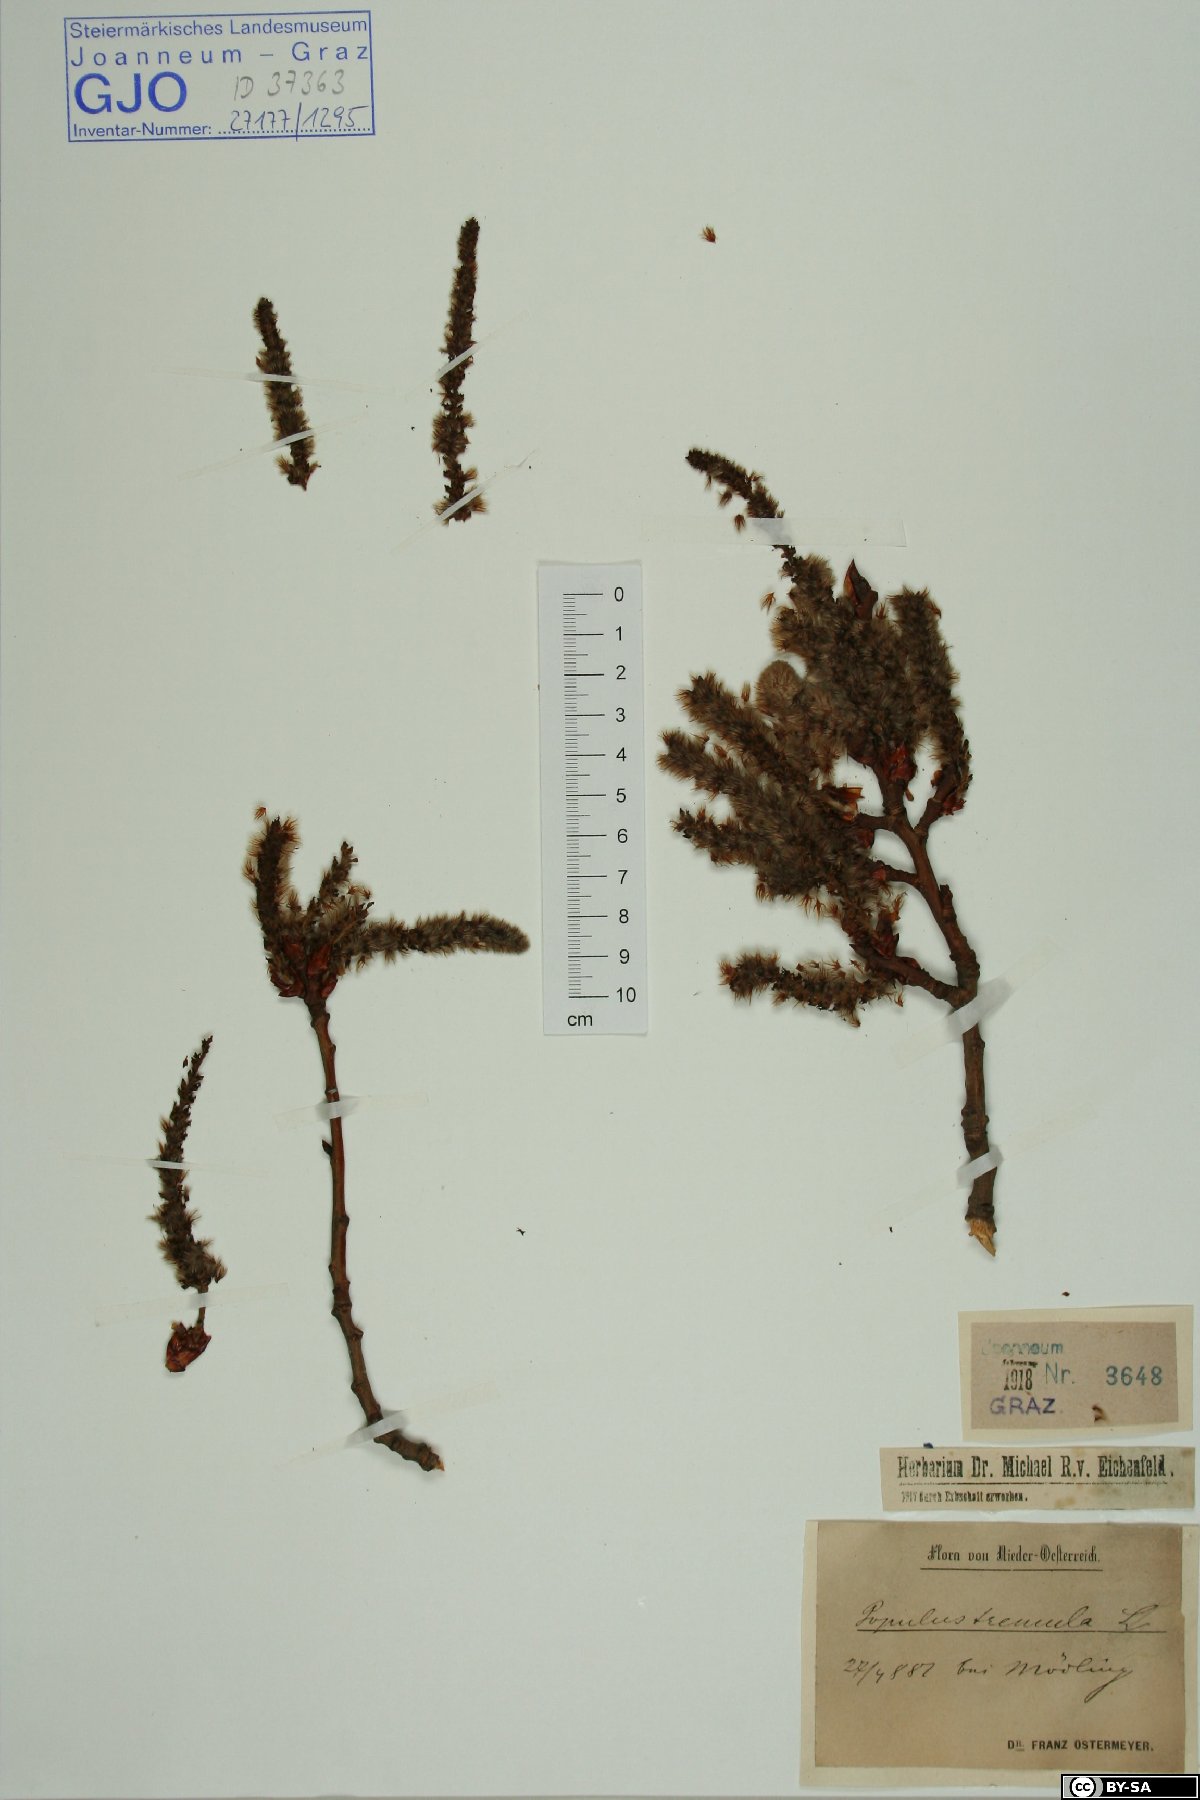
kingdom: Plantae
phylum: Tracheophyta
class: Magnoliopsida
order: Malpighiales
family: Salicaceae
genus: Populus
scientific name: Populus tremula
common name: European aspen
